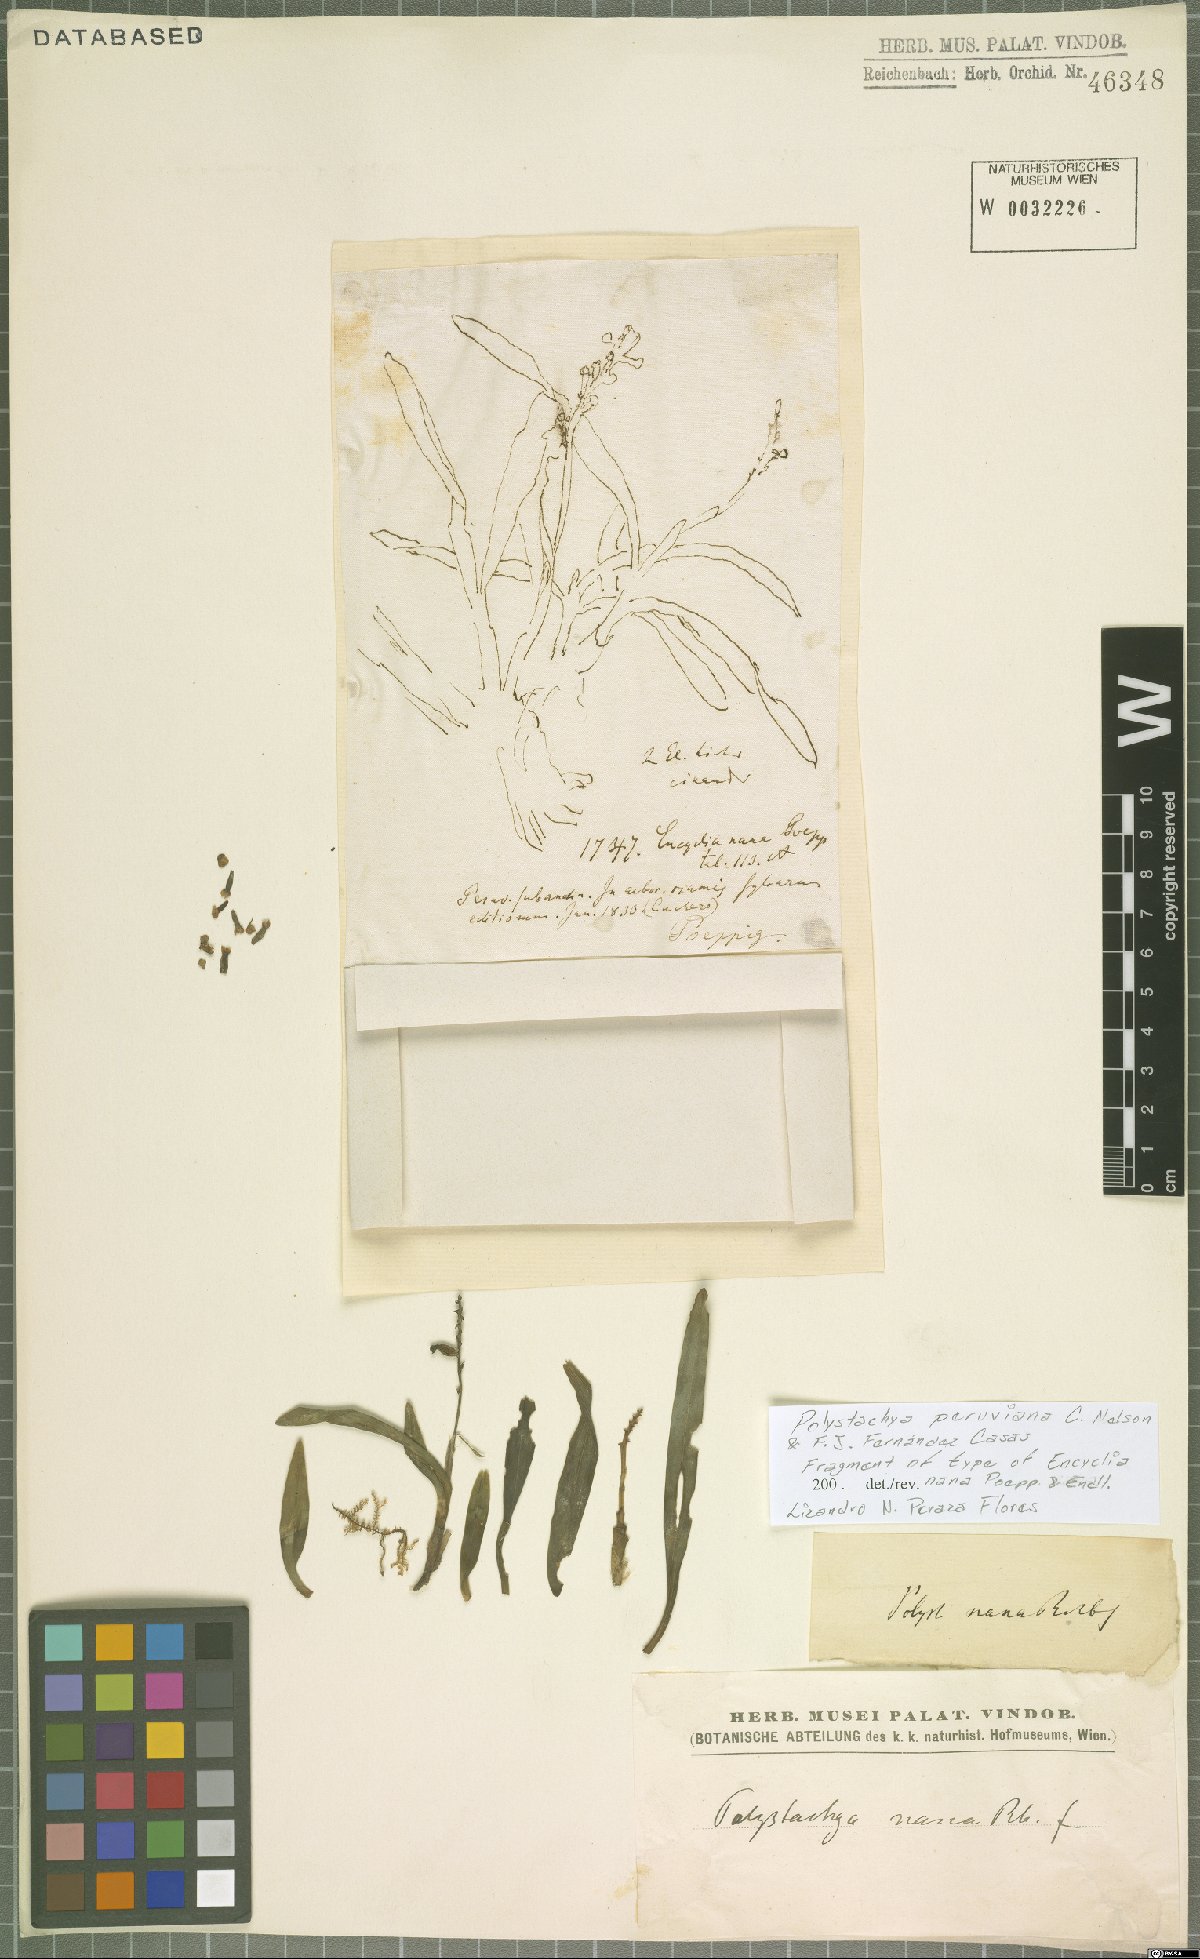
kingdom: Plantae
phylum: Tracheophyta
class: Liliopsida
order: Asparagales
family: Orchidaceae
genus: Polystachya
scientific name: Polystachya paulensis
